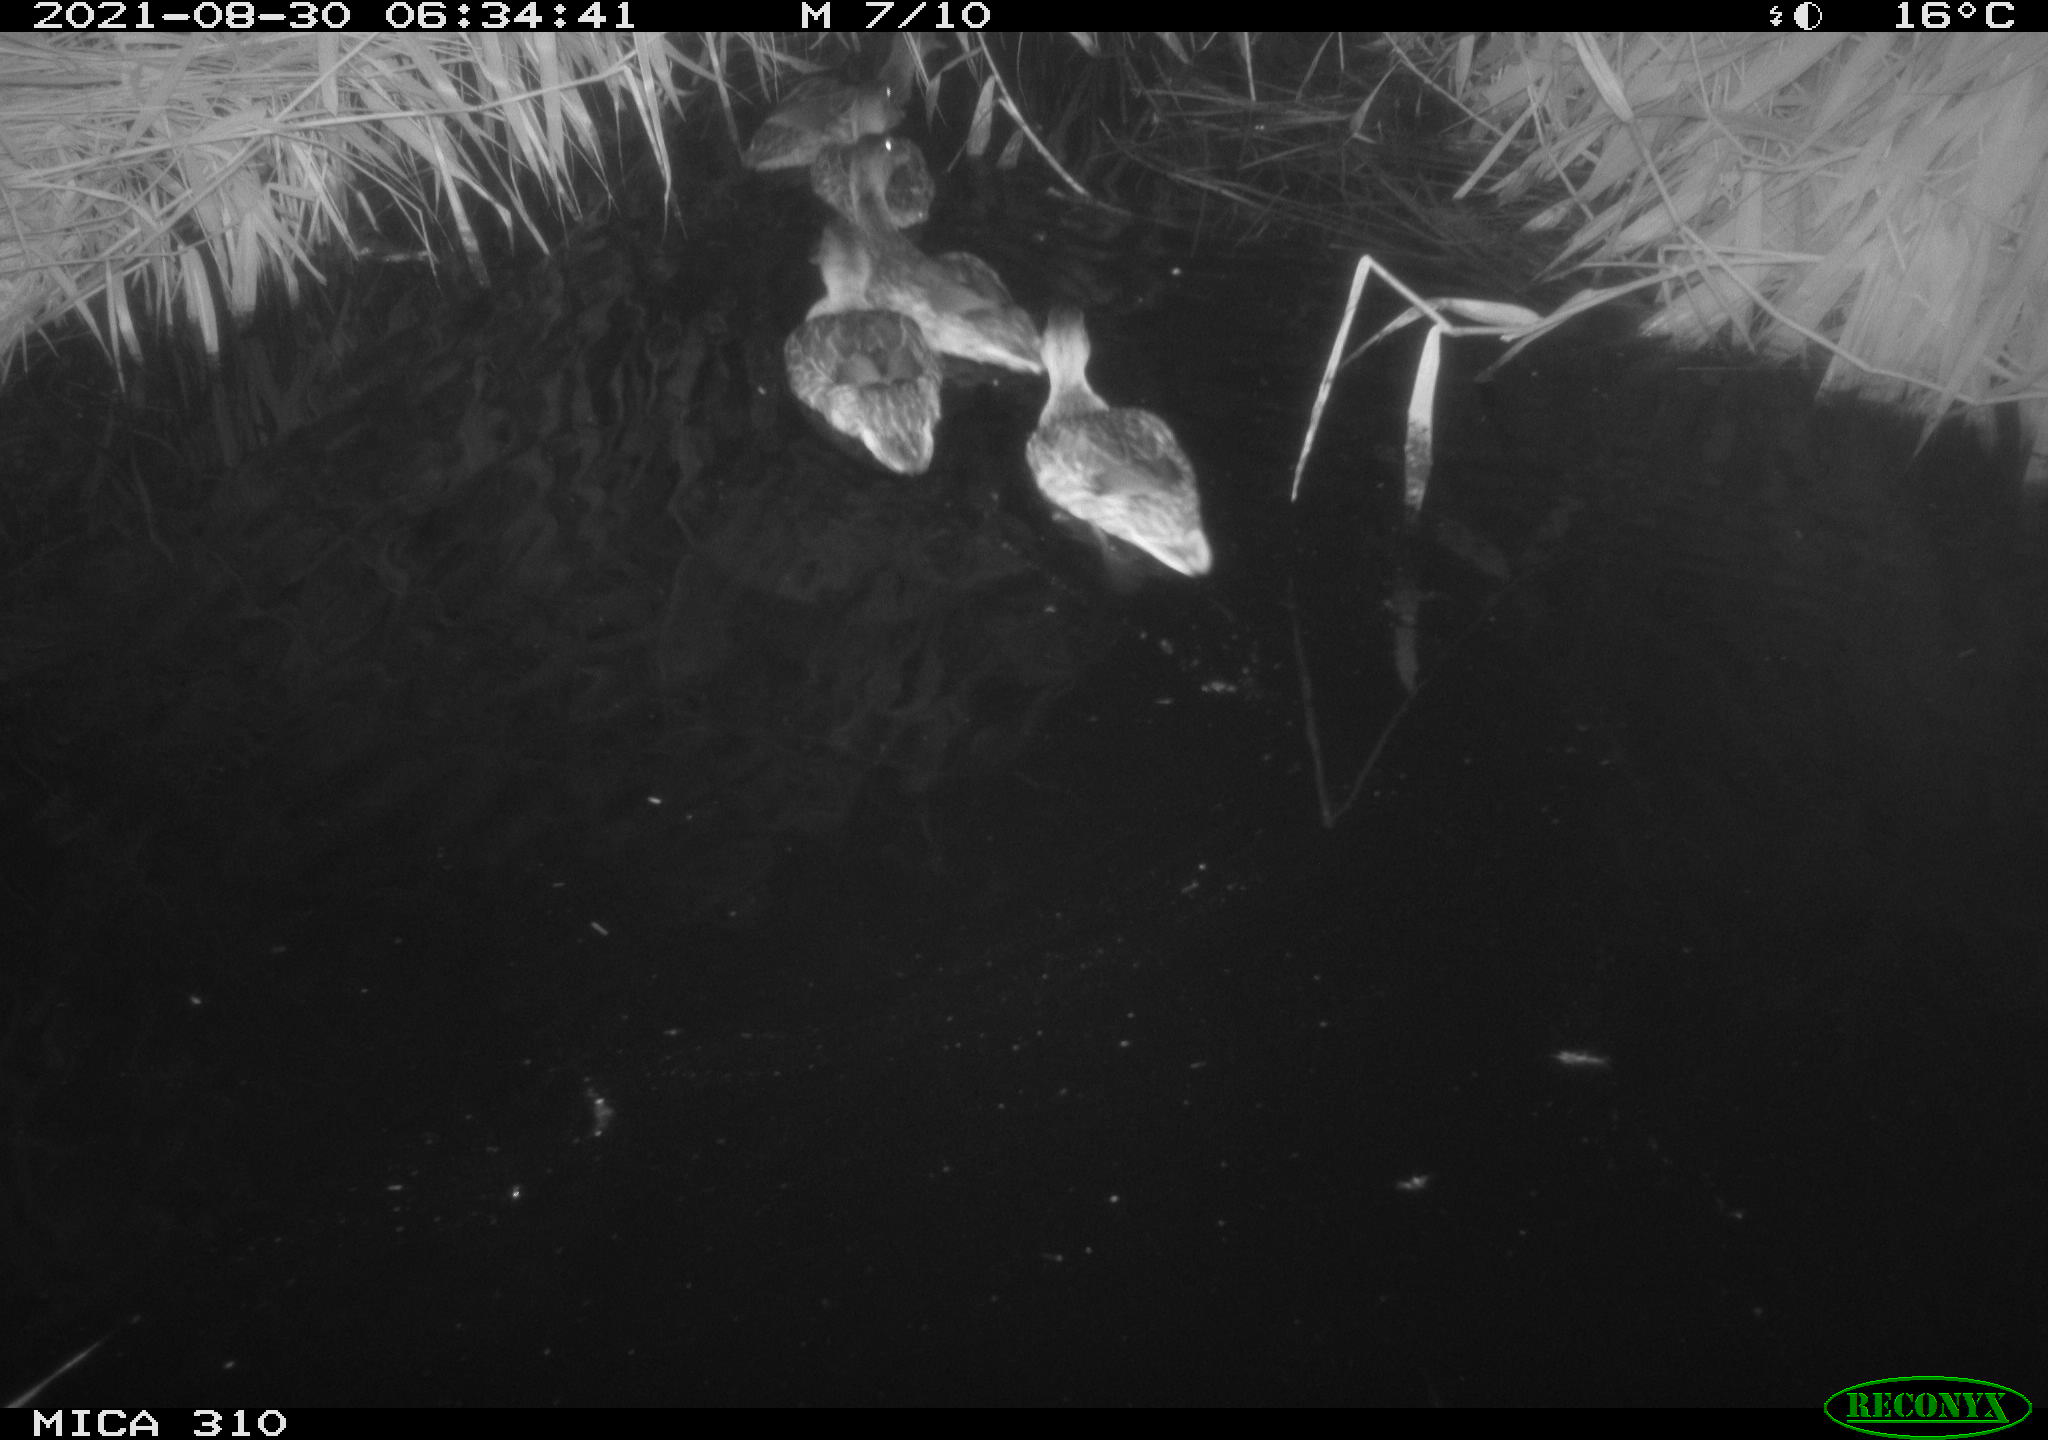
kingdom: Animalia
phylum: Chordata
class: Aves
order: Anseriformes
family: Anatidae
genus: Anas
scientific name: Anas platyrhynchos
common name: Mallard
